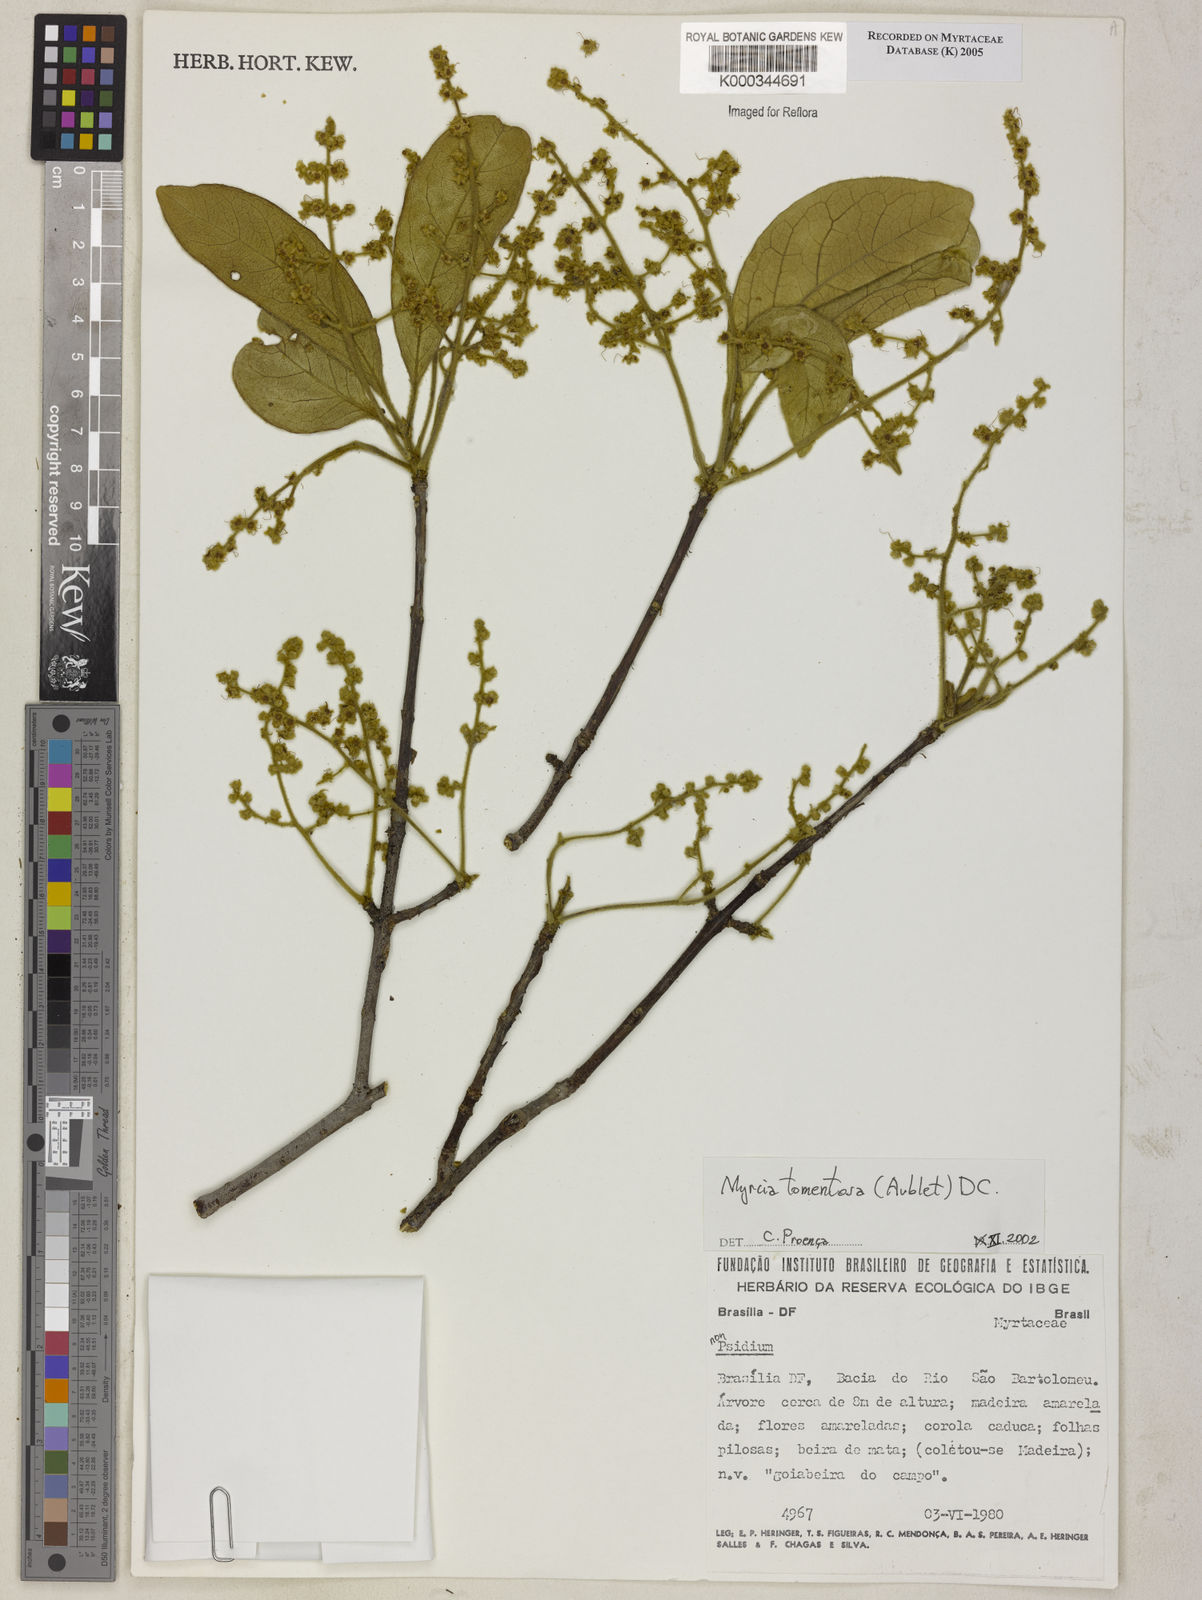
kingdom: Plantae
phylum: Tracheophyta
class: Magnoliopsida
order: Myrtales
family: Myrtaceae
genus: Myrcia
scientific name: Myrcia tomentosa
